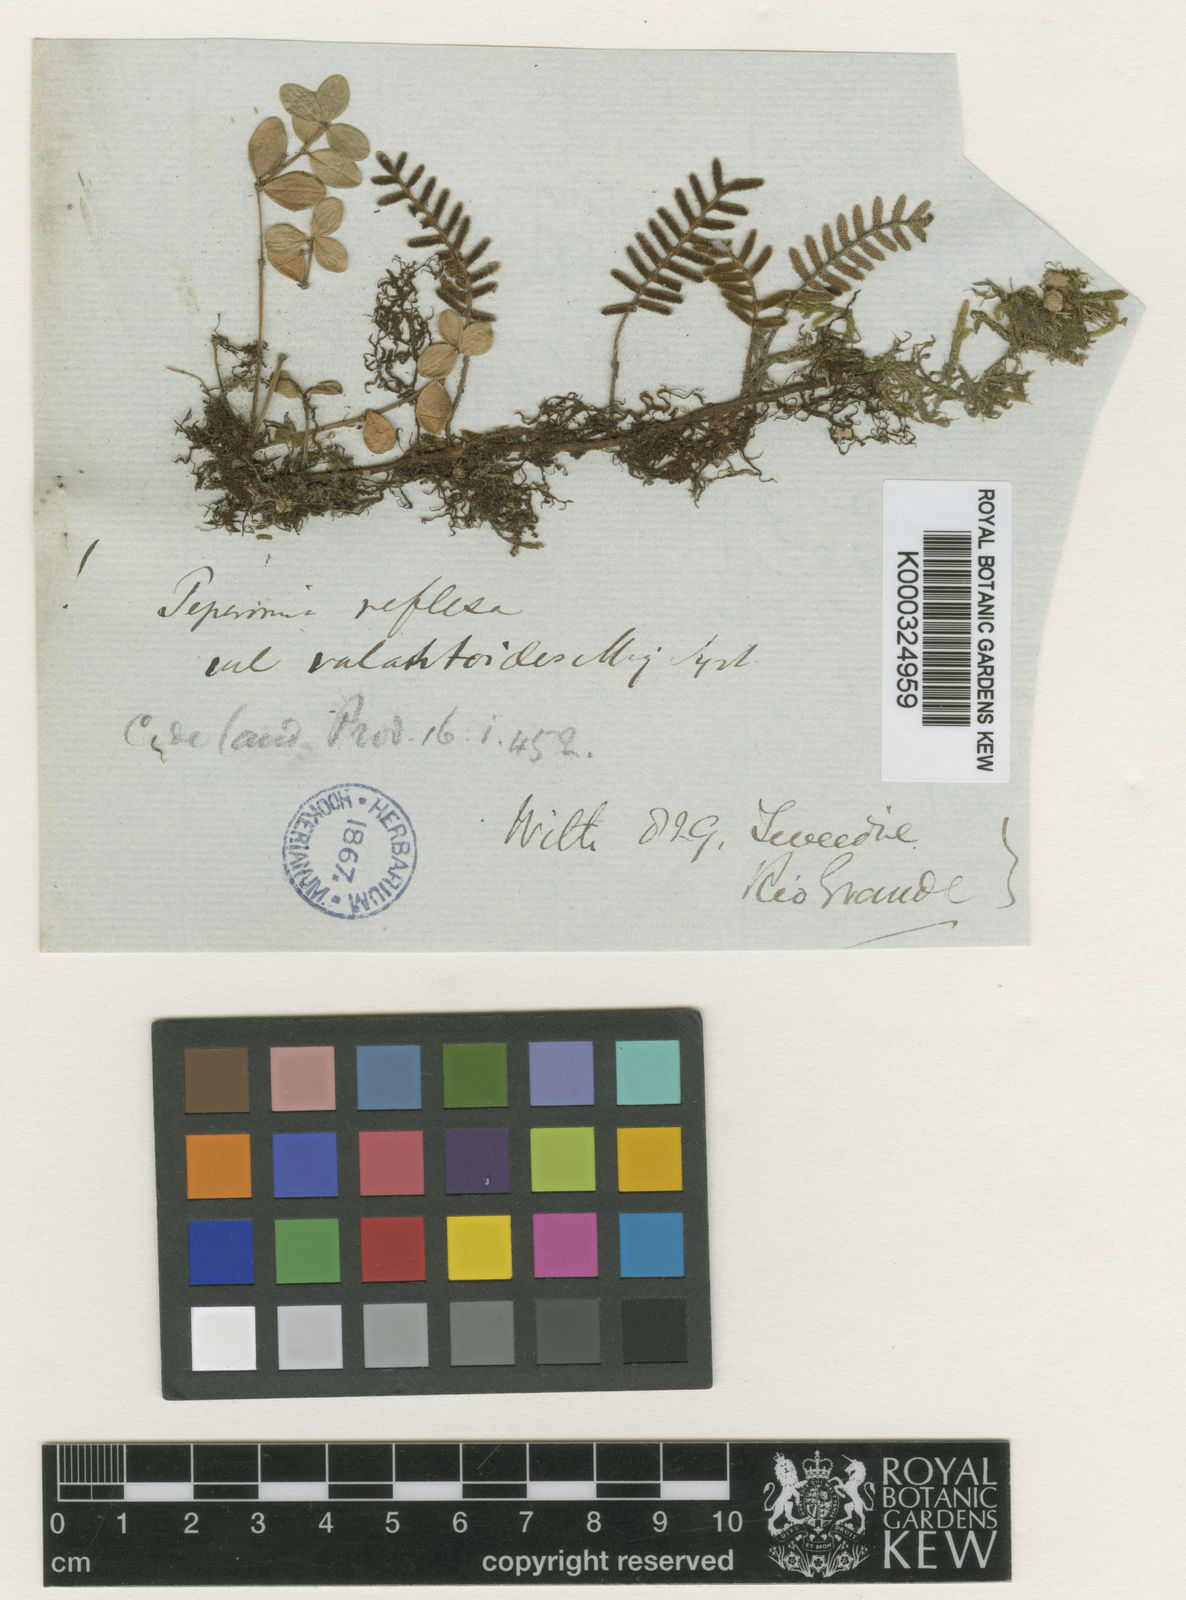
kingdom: Plantae
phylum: Tracheophyta
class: Magnoliopsida
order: Piperales
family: Piperaceae
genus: Peperomia
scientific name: Peperomia tetraphylla
